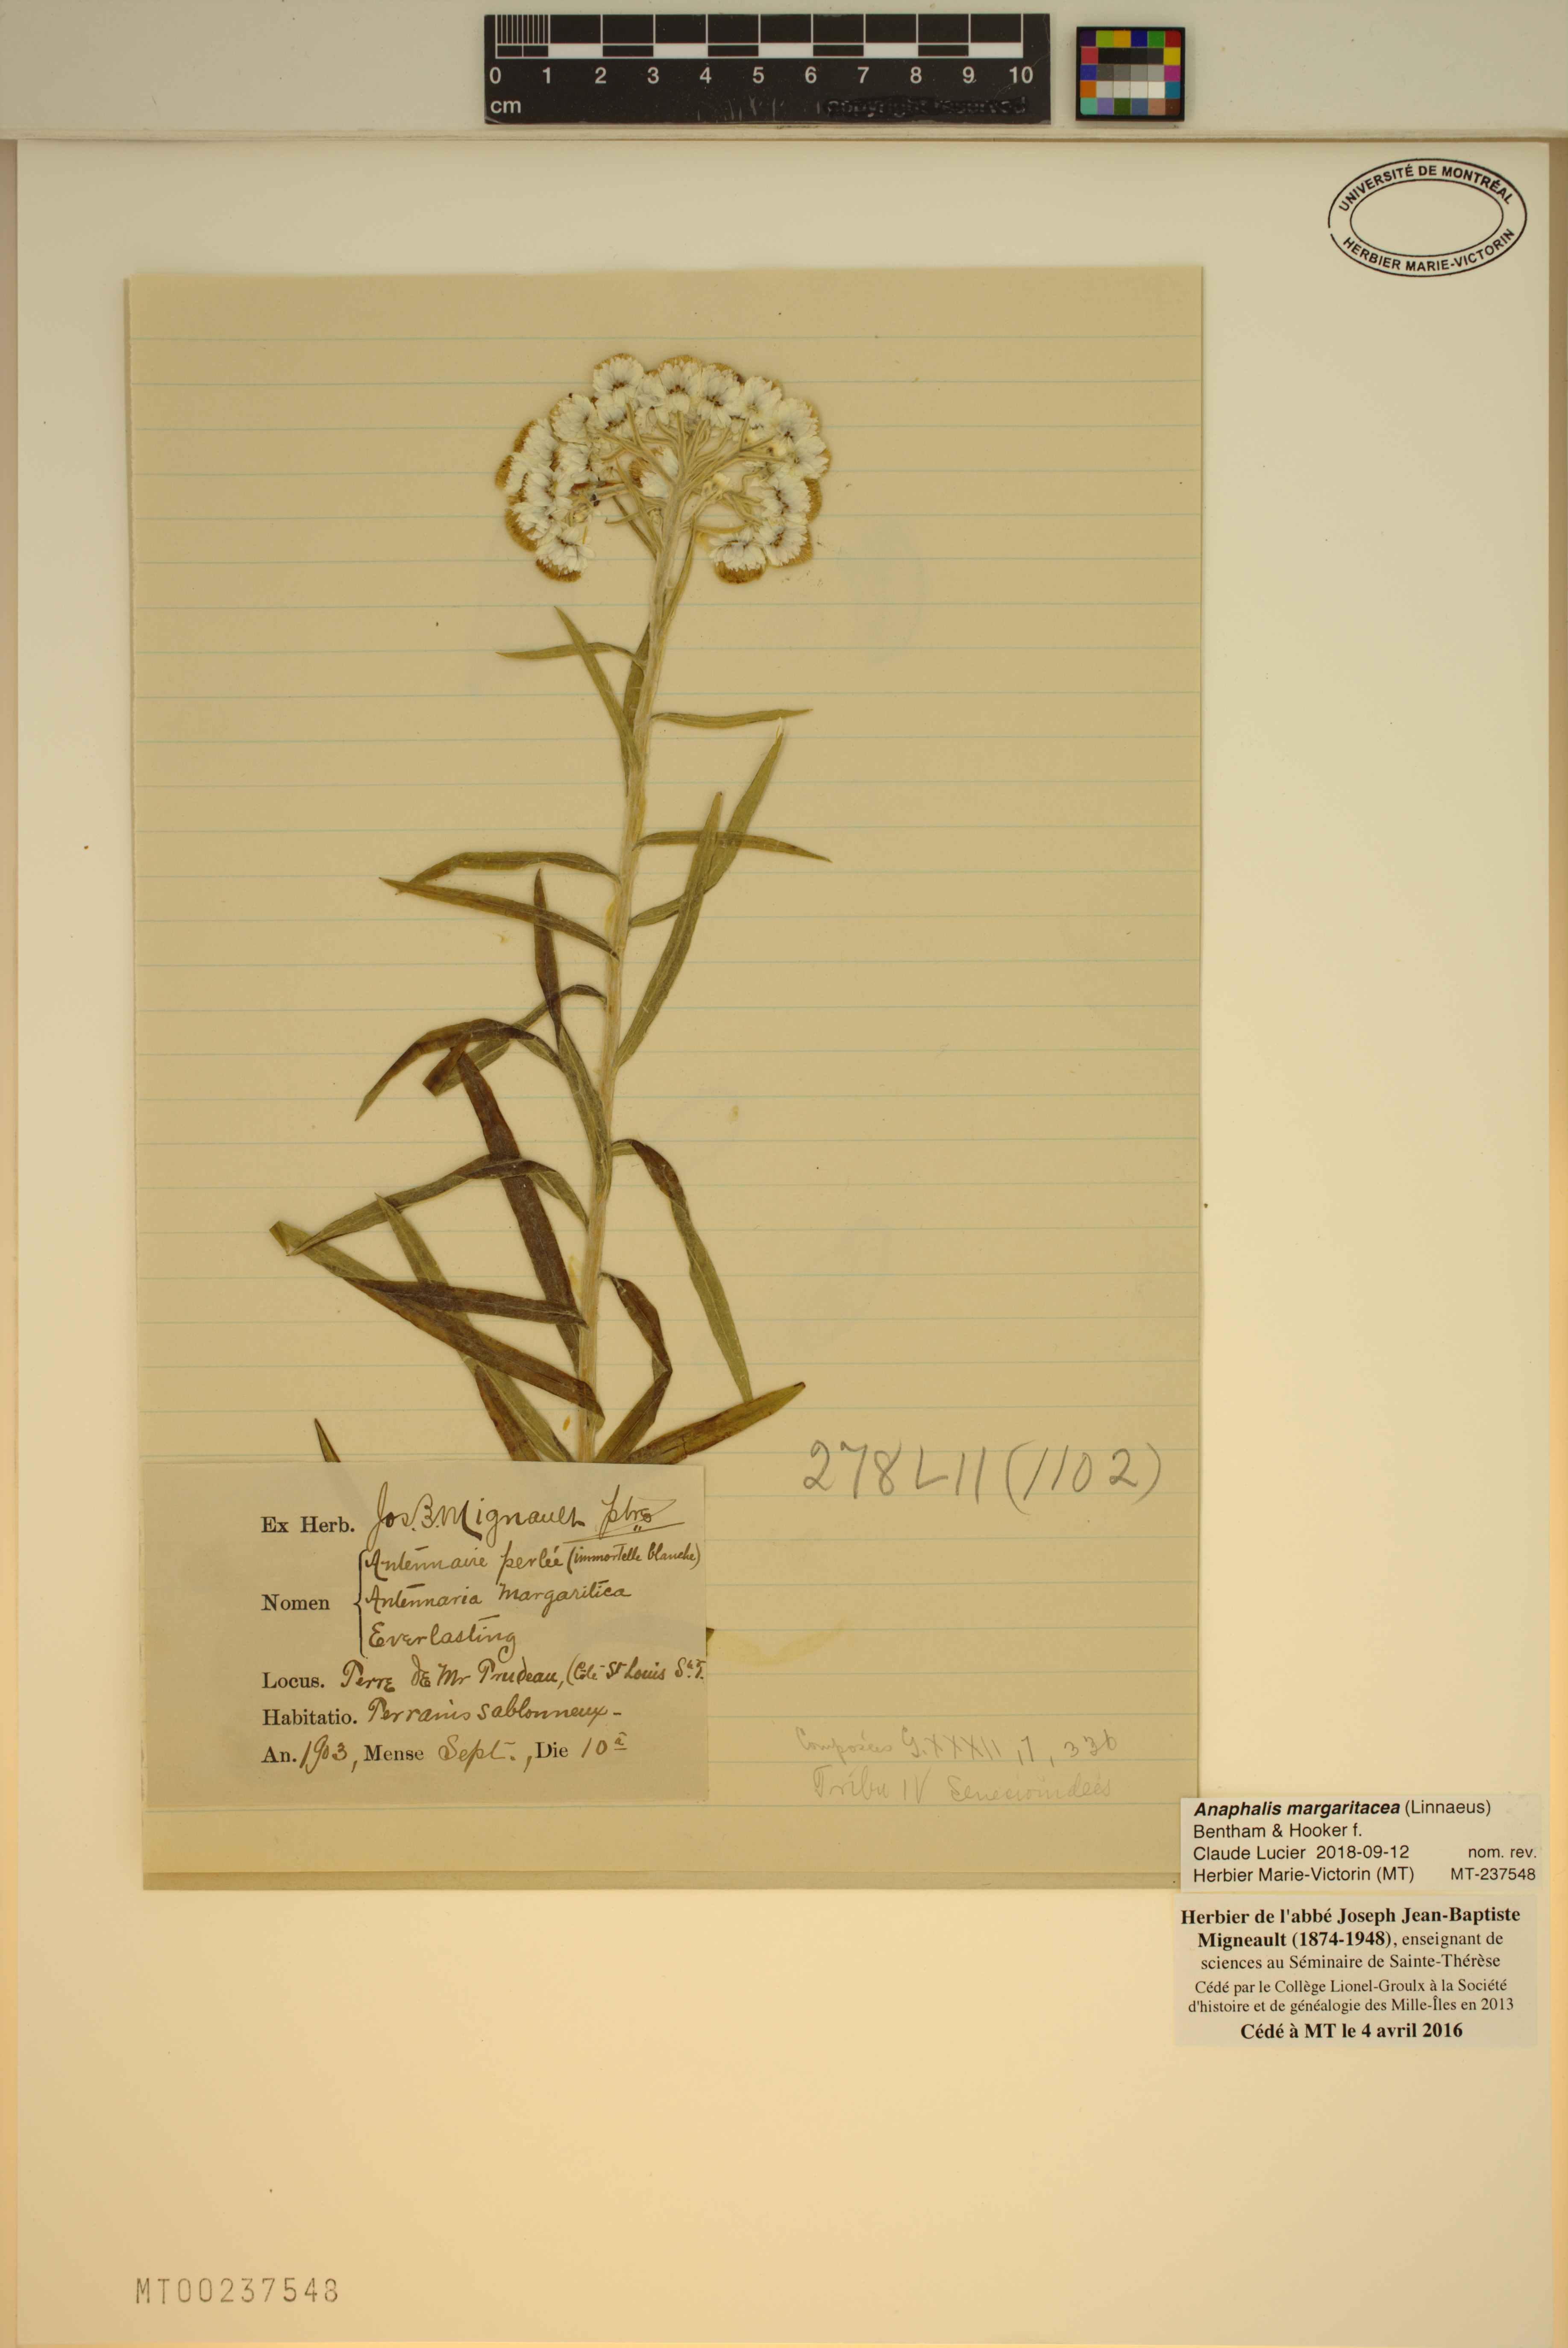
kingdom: Plantae
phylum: Tracheophyta
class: Magnoliopsida
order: Asterales
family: Asteraceae
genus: Anaphalis
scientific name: Anaphalis margaritacea
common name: Pearly everlasting
